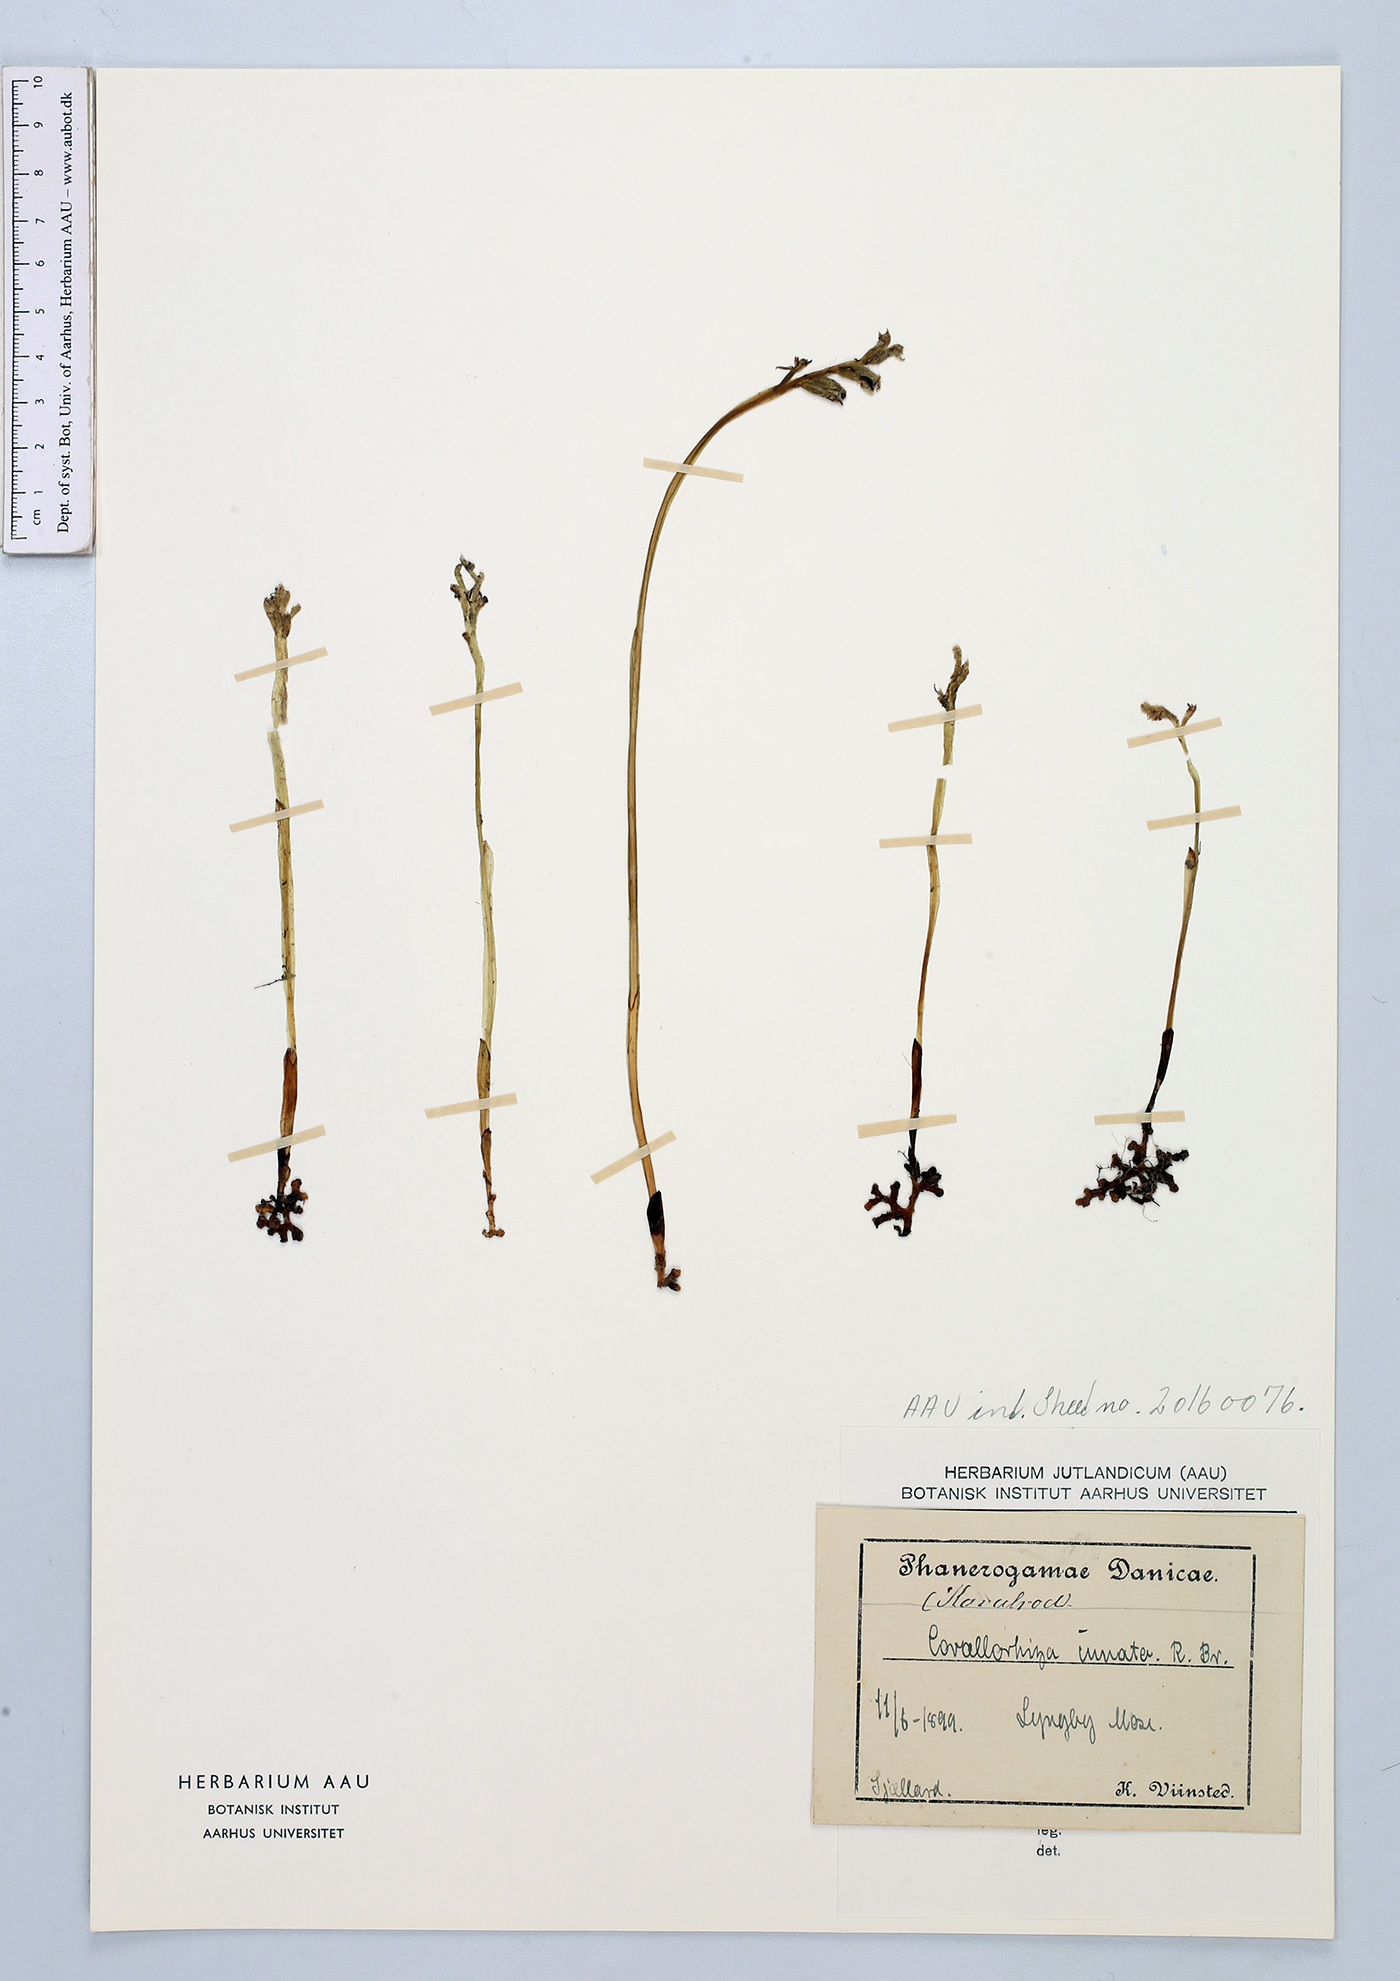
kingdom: Plantae
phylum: Tracheophyta
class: Liliopsida
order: Asparagales
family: Orchidaceae
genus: Corallorhiza
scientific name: Corallorhiza trifida
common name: Yellow coralroot
